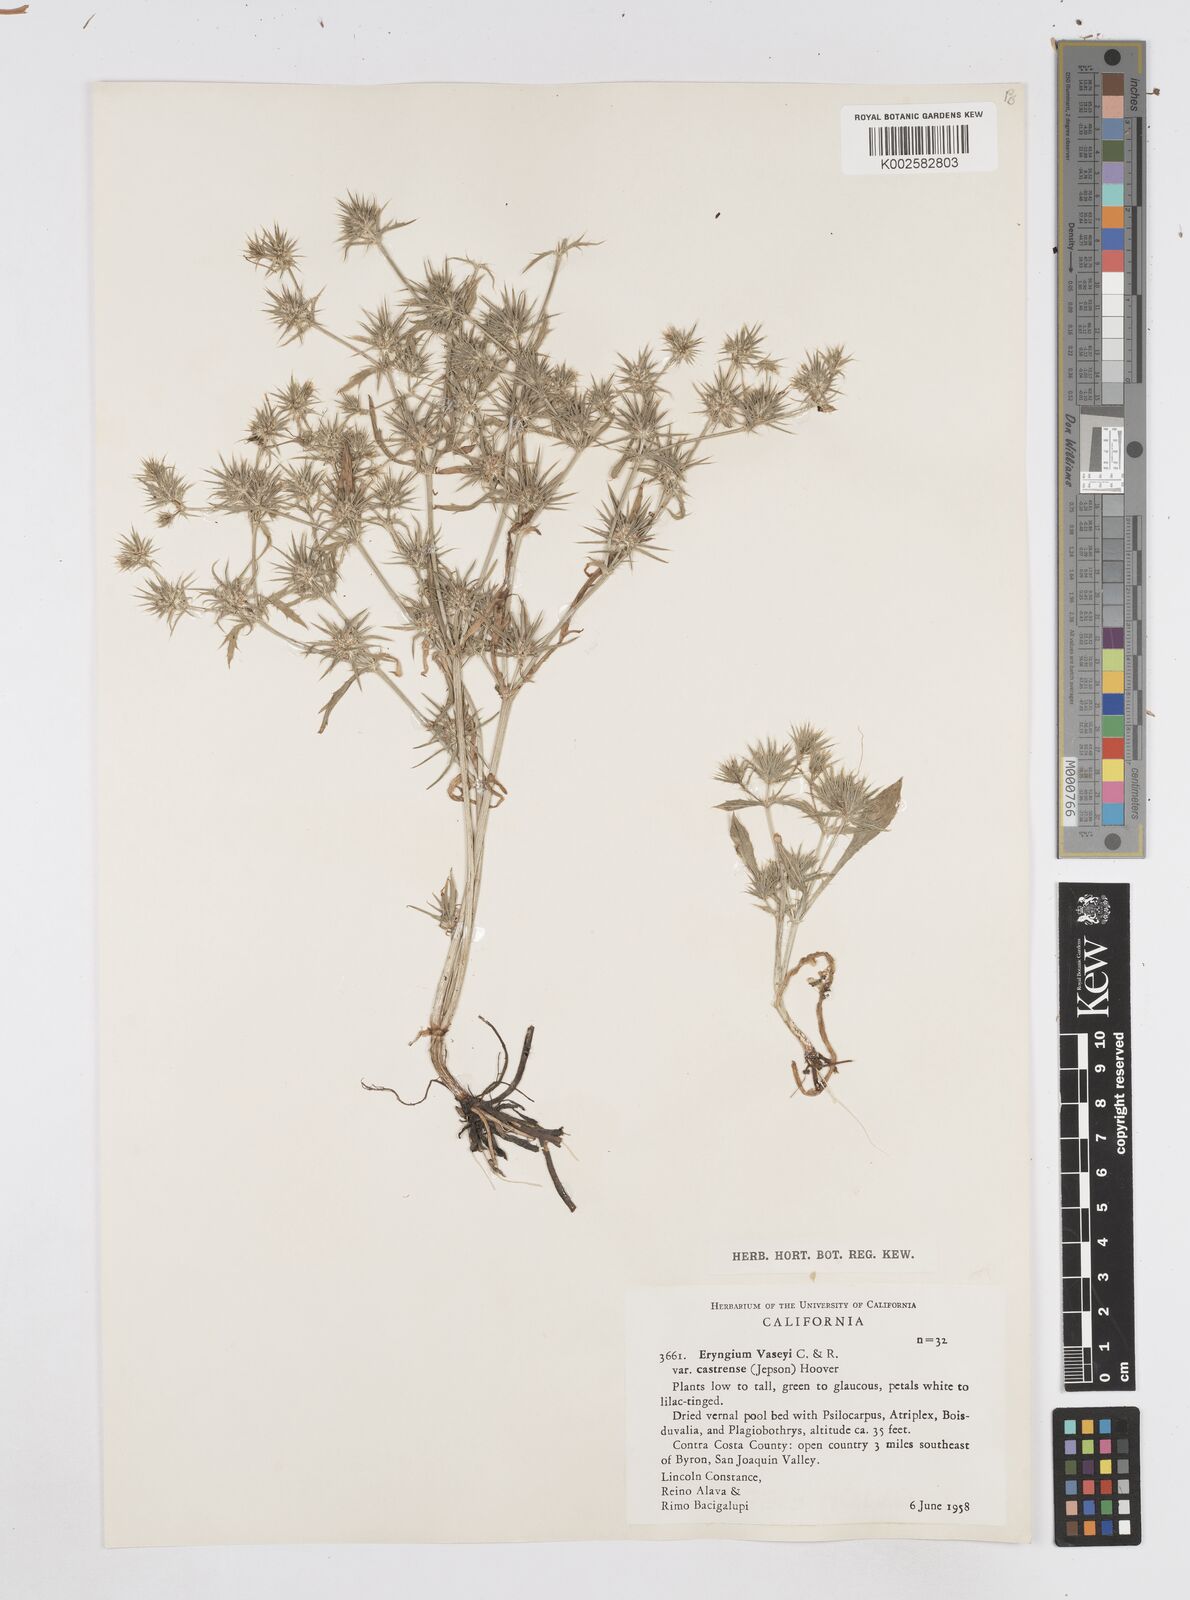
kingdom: Plantae
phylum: Tracheophyta
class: Magnoliopsida
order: Apiales
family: Apiaceae
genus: Eryngium
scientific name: Eryngium castrense
